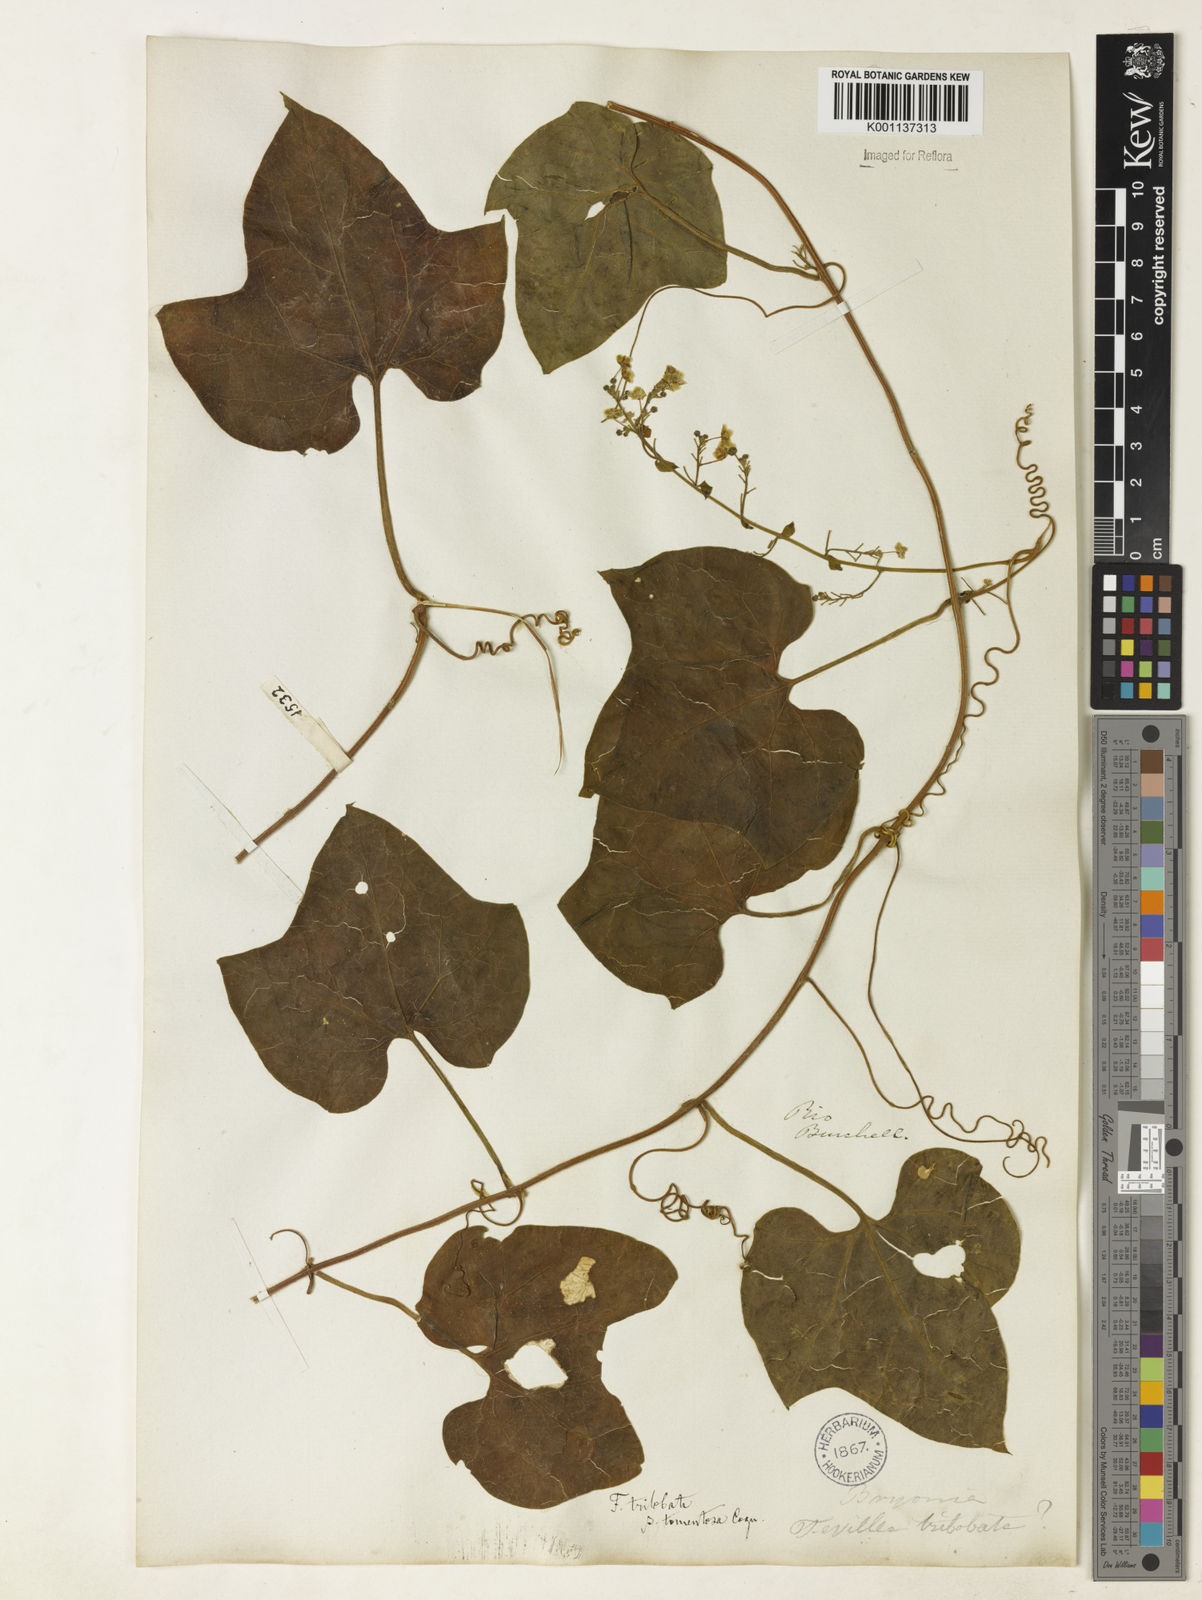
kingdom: Plantae
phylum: Tracheophyta
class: Magnoliopsida
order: Cucurbitales
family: Cucurbitaceae
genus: Fevillea
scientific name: Fevillea trilobata
